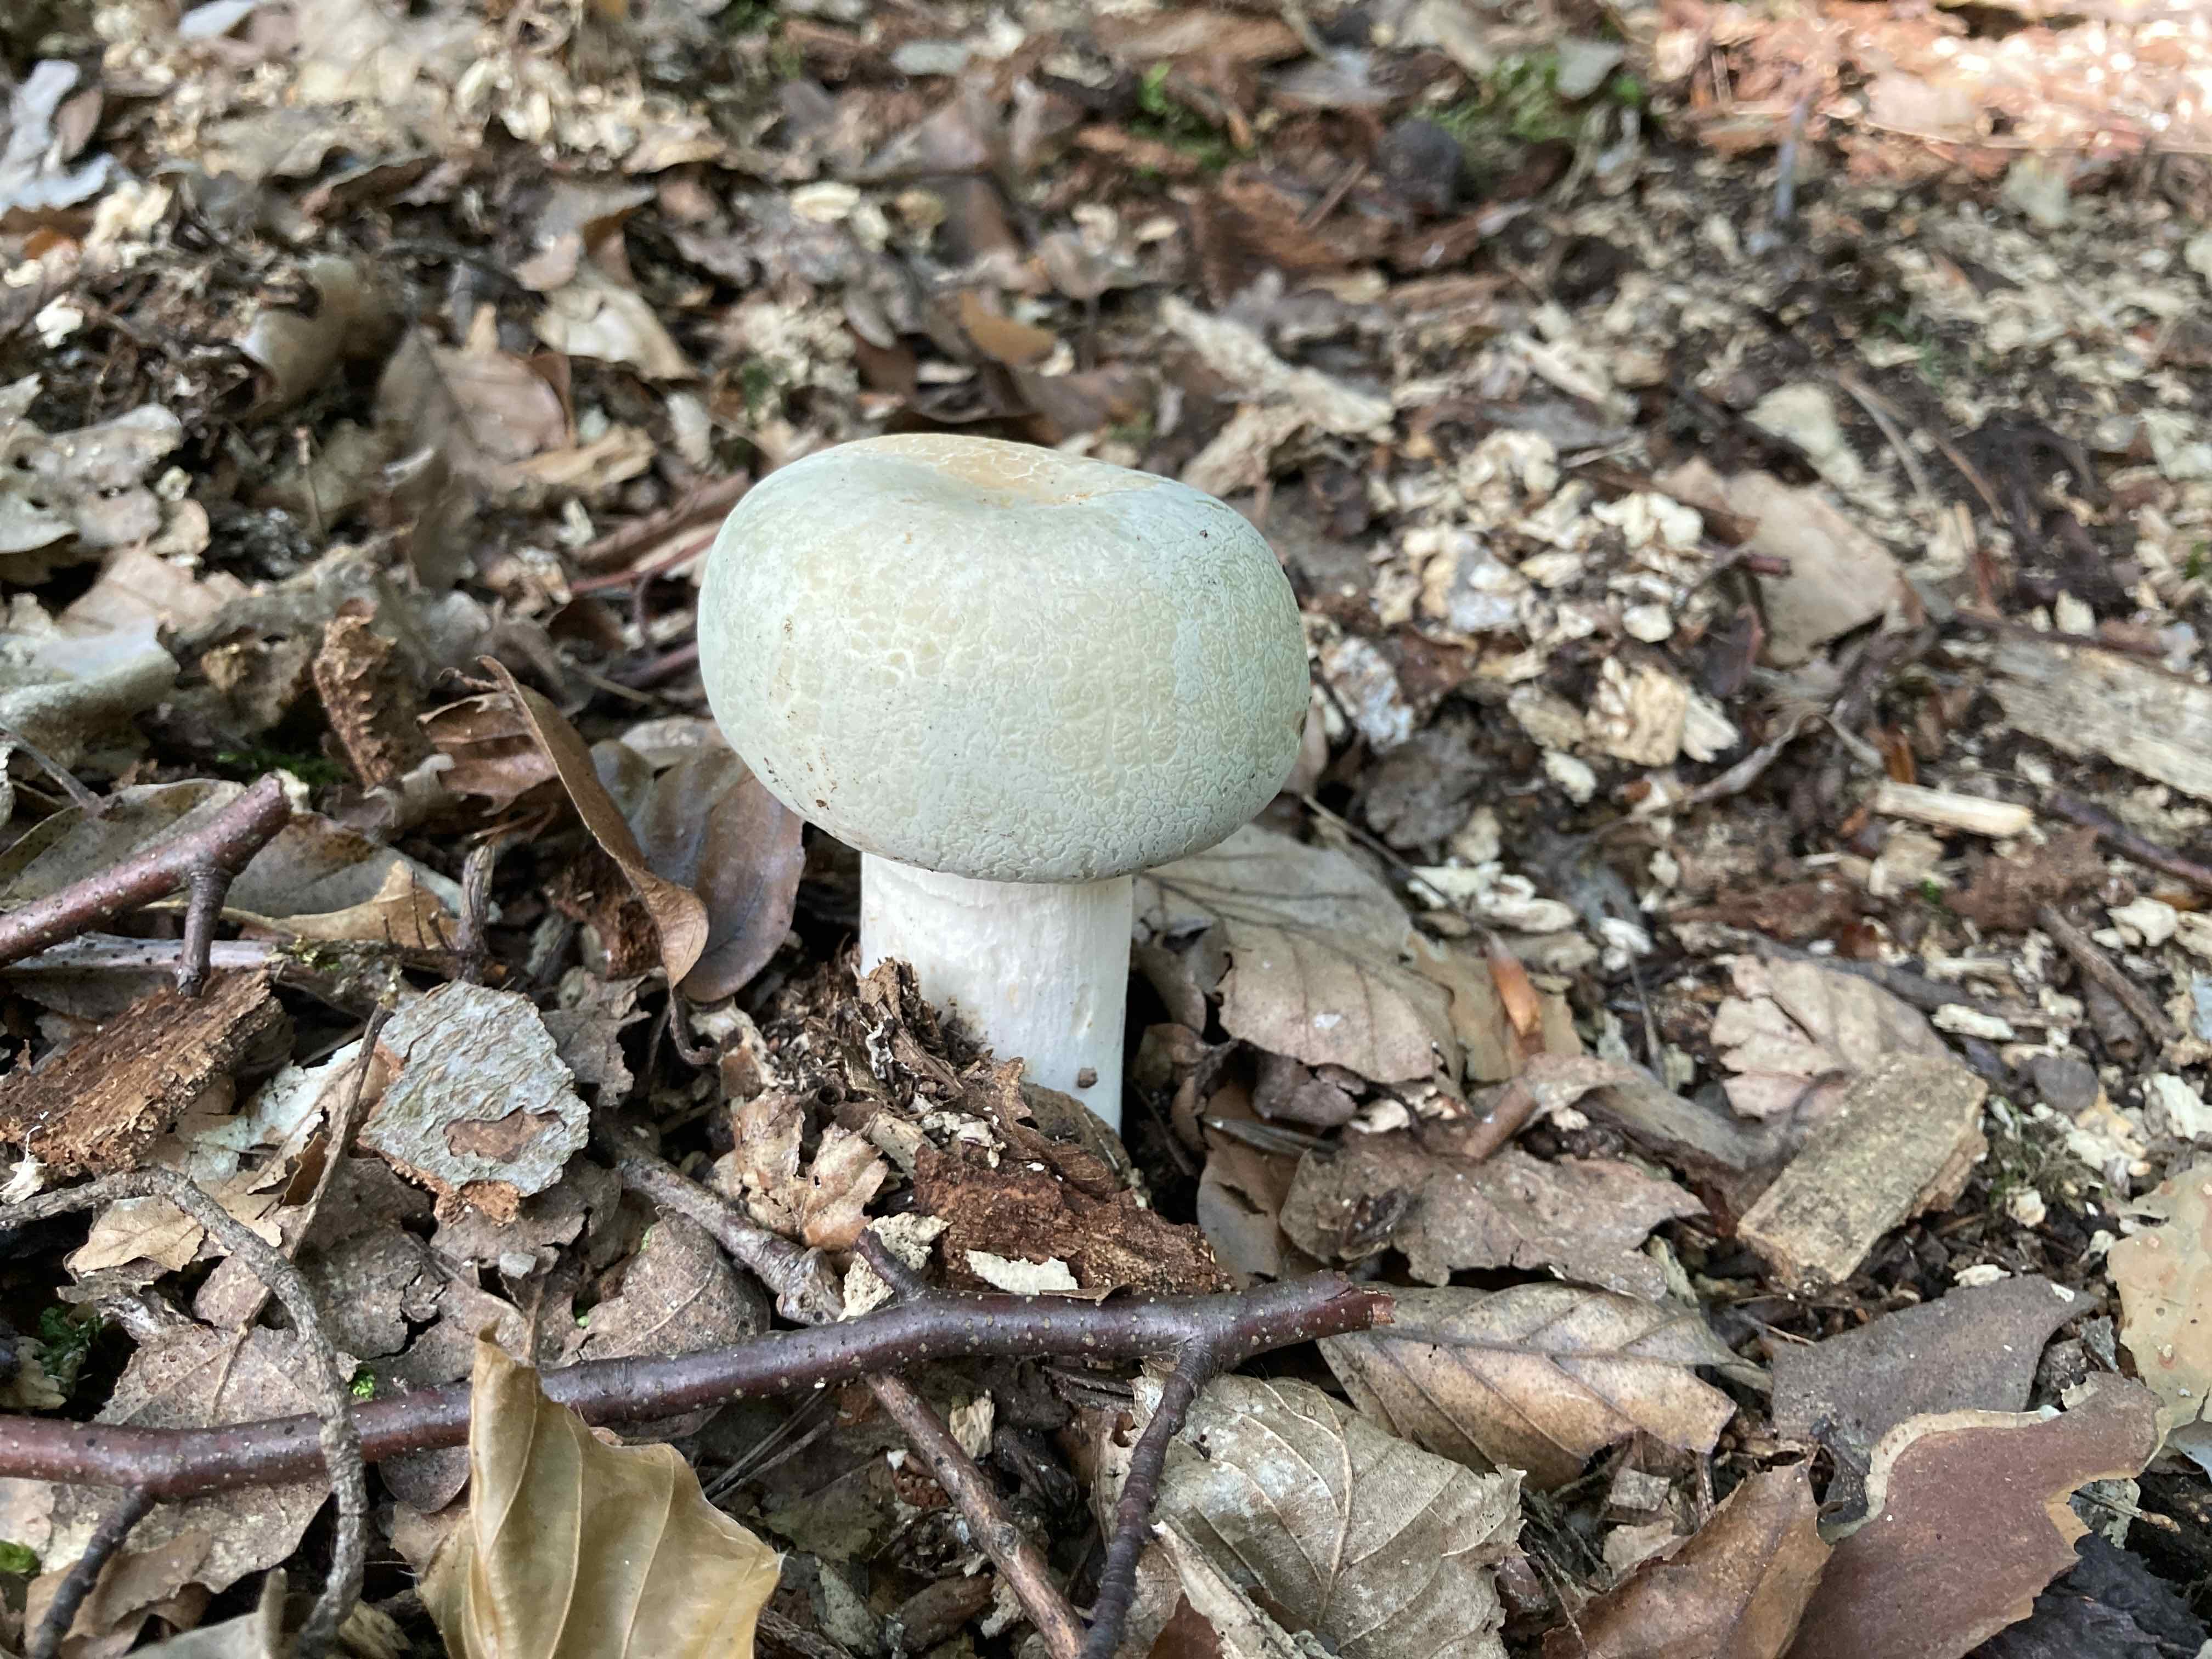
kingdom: Fungi
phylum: Basidiomycota
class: Agaricomycetes
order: Russulales
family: Russulaceae
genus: Russula
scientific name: Russula virescens
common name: spanskgrøn skørhat
